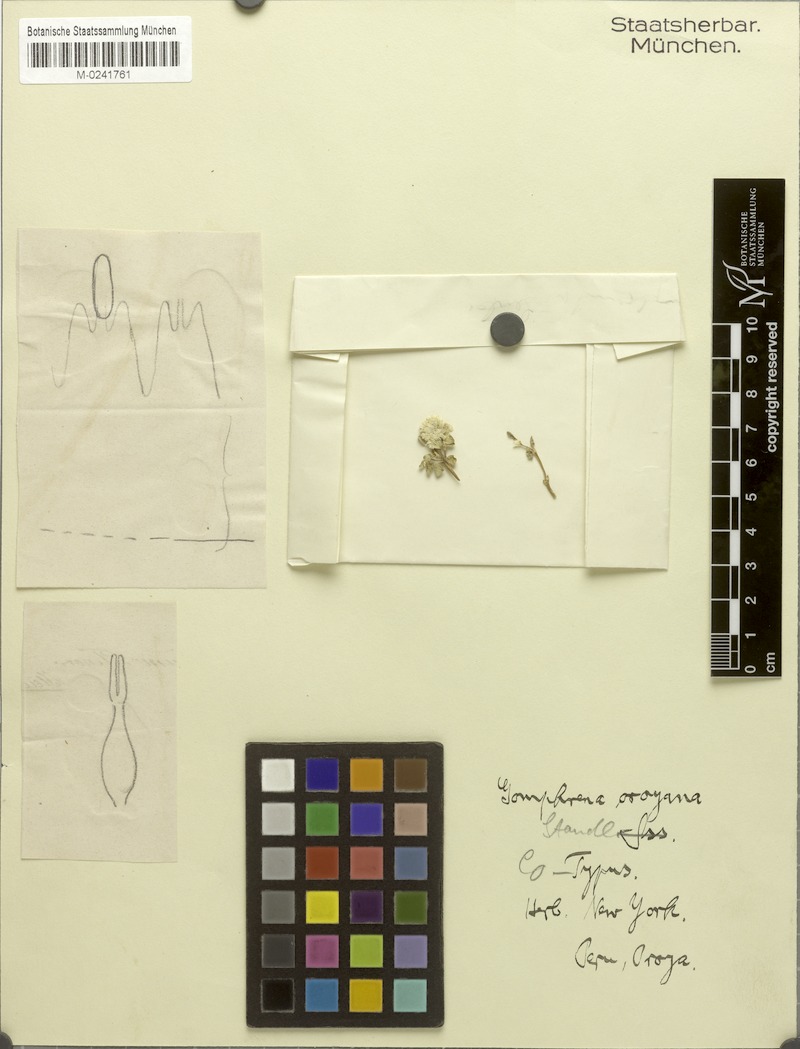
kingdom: Plantae
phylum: Tracheophyta
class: Magnoliopsida
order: Caryophyllales
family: Amaranthaceae
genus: Gomphrena
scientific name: Gomphrena oroyana
